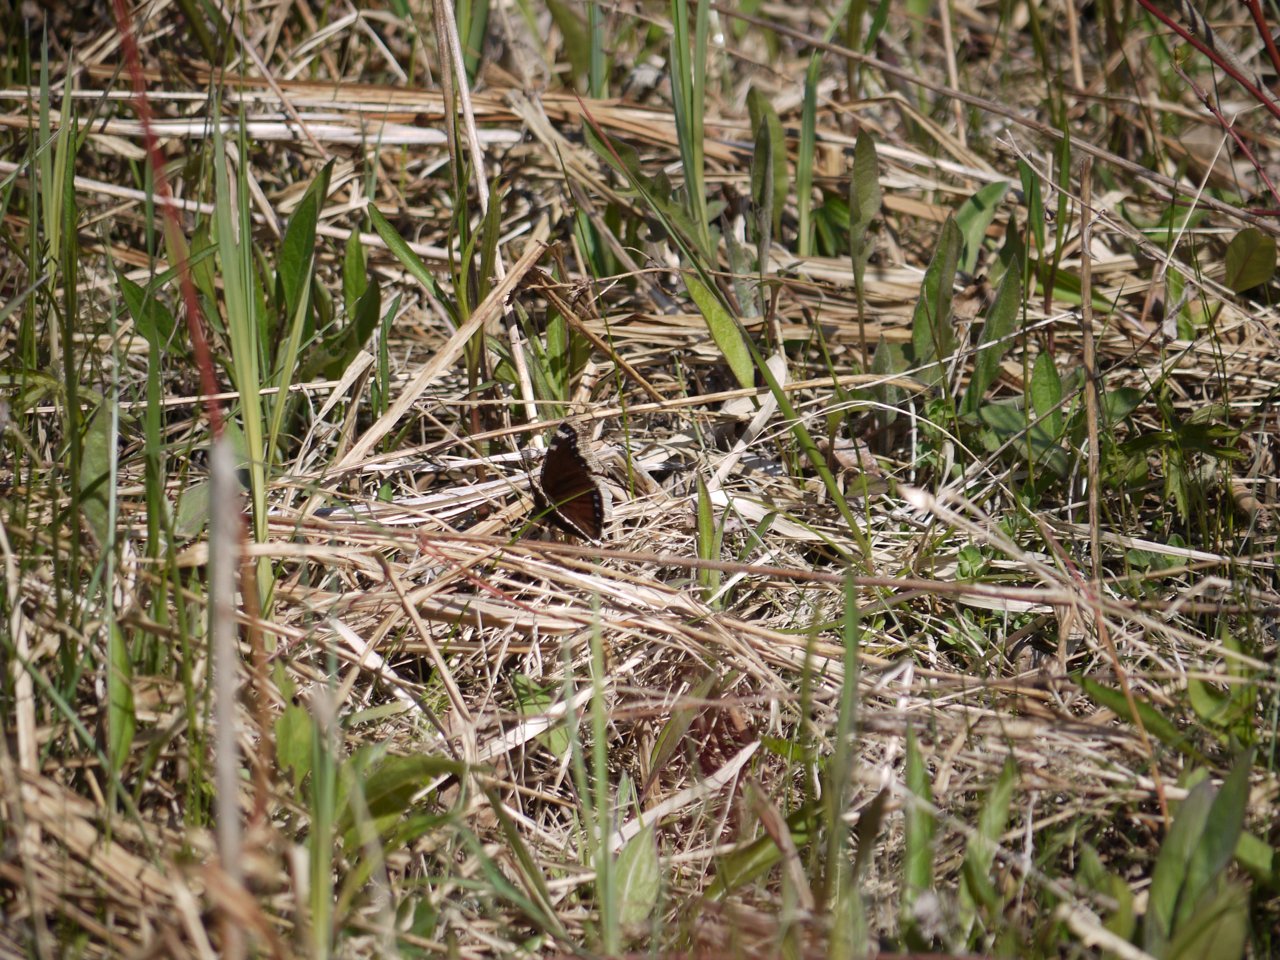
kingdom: Animalia
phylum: Arthropoda
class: Insecta
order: Lepidoptera
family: Nymphalidae
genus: Nymphalis
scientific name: Nymphalis antiopa
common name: Mourning Cloak
